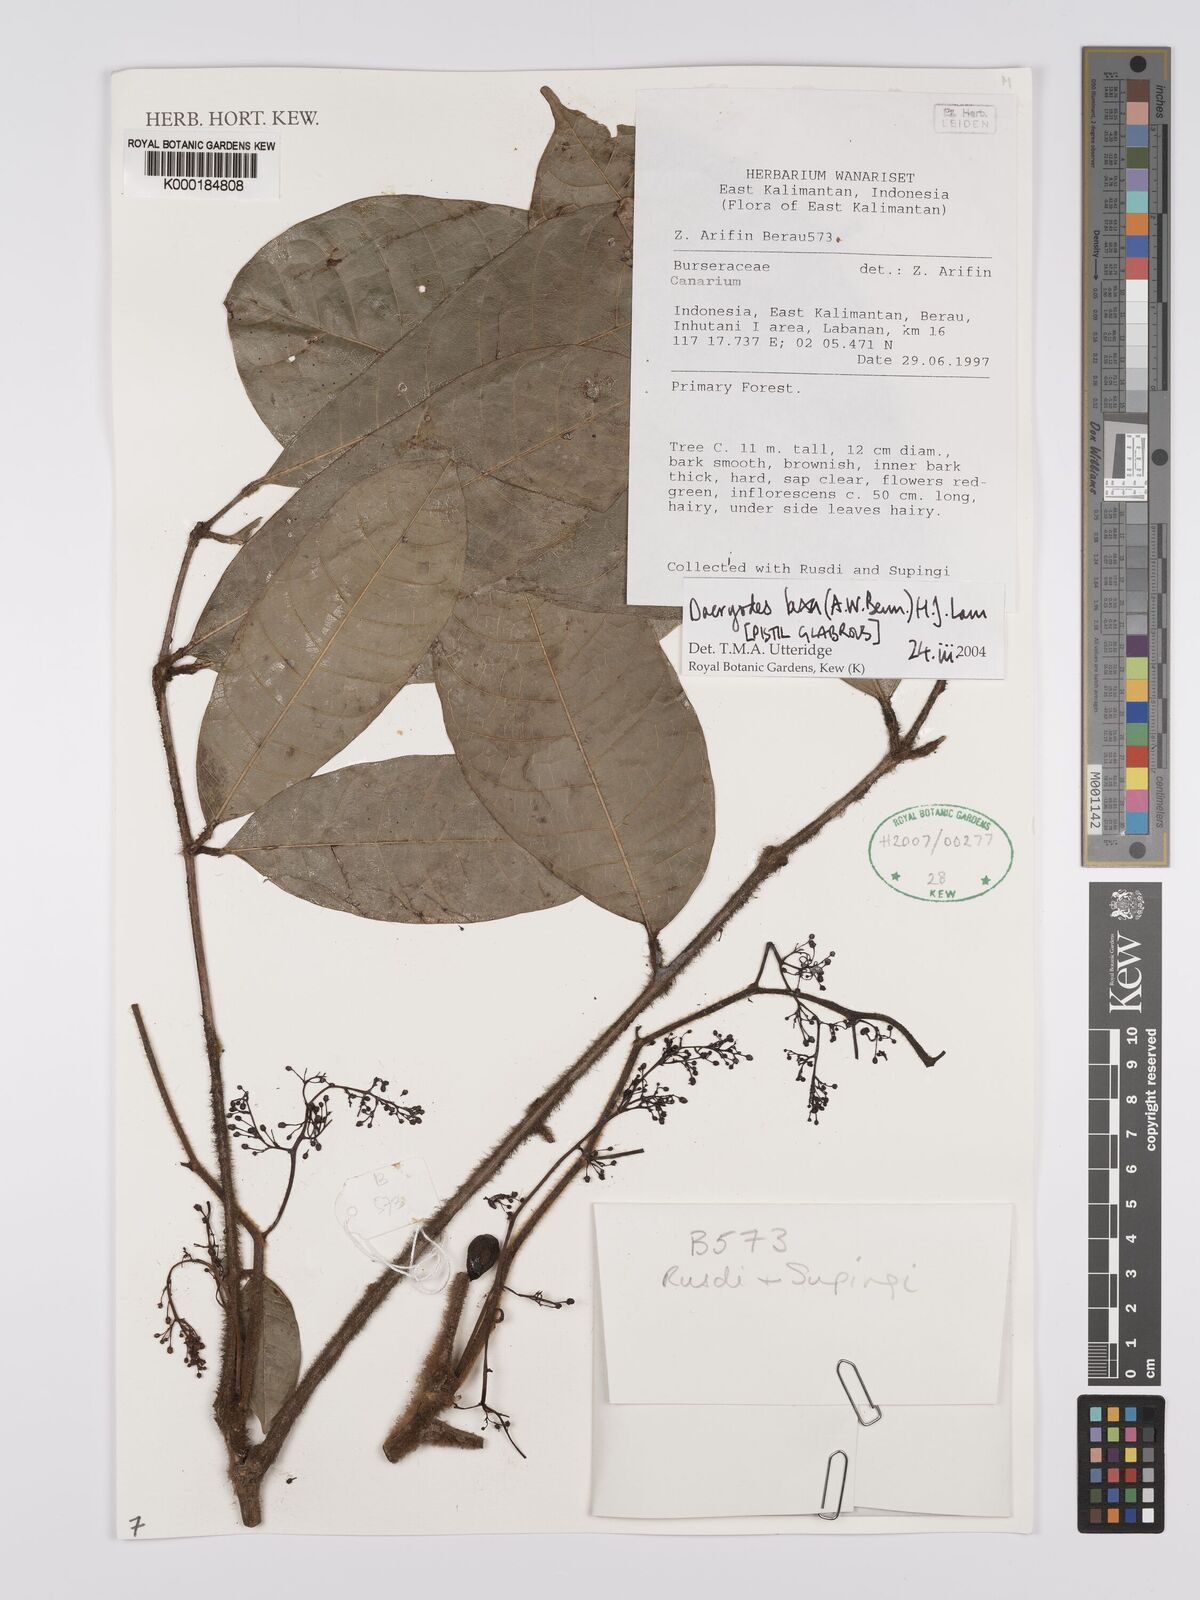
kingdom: Plantae
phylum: Tracheophyta
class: Magnoliopsida
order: Sapindales
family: Burseraceae
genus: Dacryodes
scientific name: Dacryodes laxa
